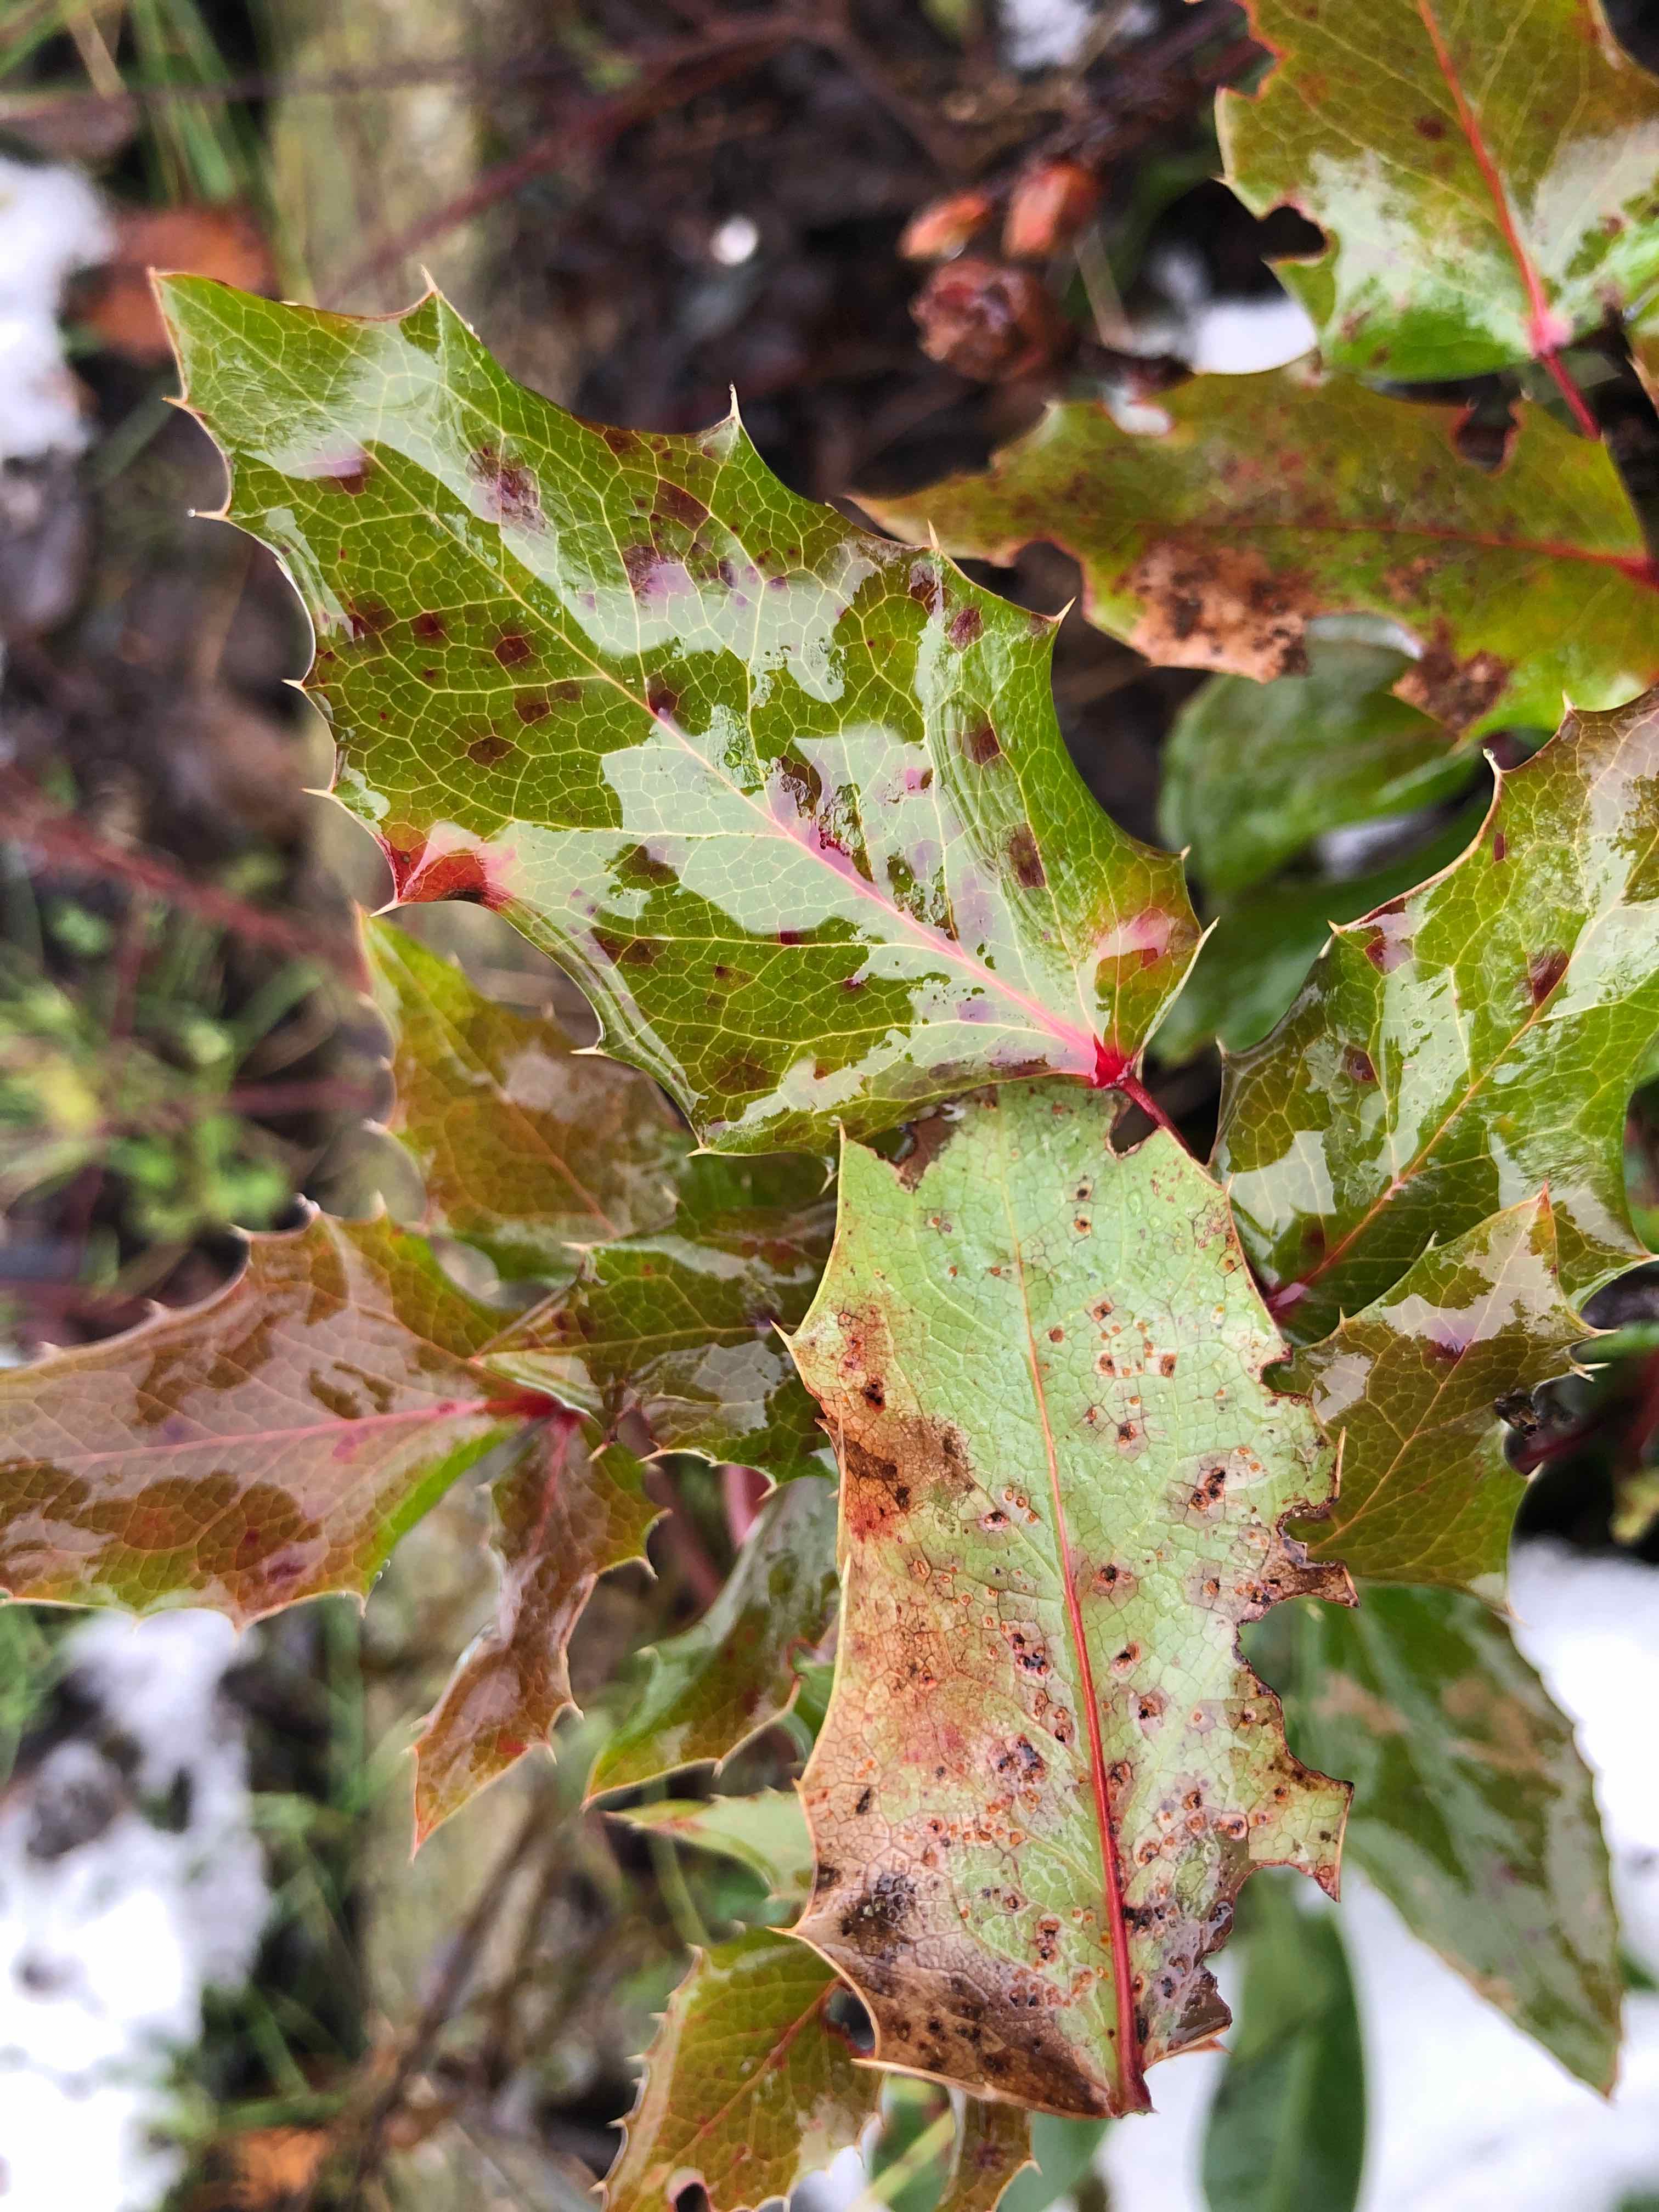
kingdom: Fungi
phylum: Basidiomycota
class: Pucciniomycetes
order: Pucciniales
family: Pucciniaceae
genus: Cumminsiella
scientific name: Cumminsiella mirabilissima
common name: mahonierust
